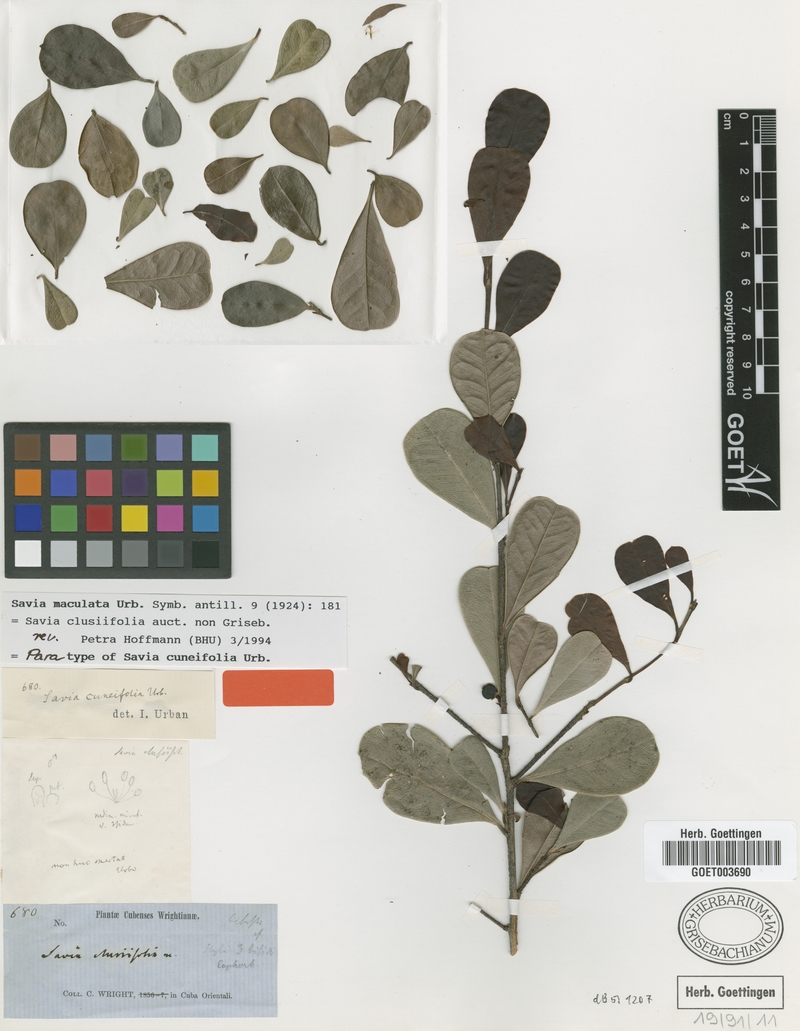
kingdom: Plantae
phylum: Tracheophyta
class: Magnoliopsida
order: Malpighiales
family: Phyllanthaceae
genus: Heterosavia
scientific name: Heterosavia maculata
